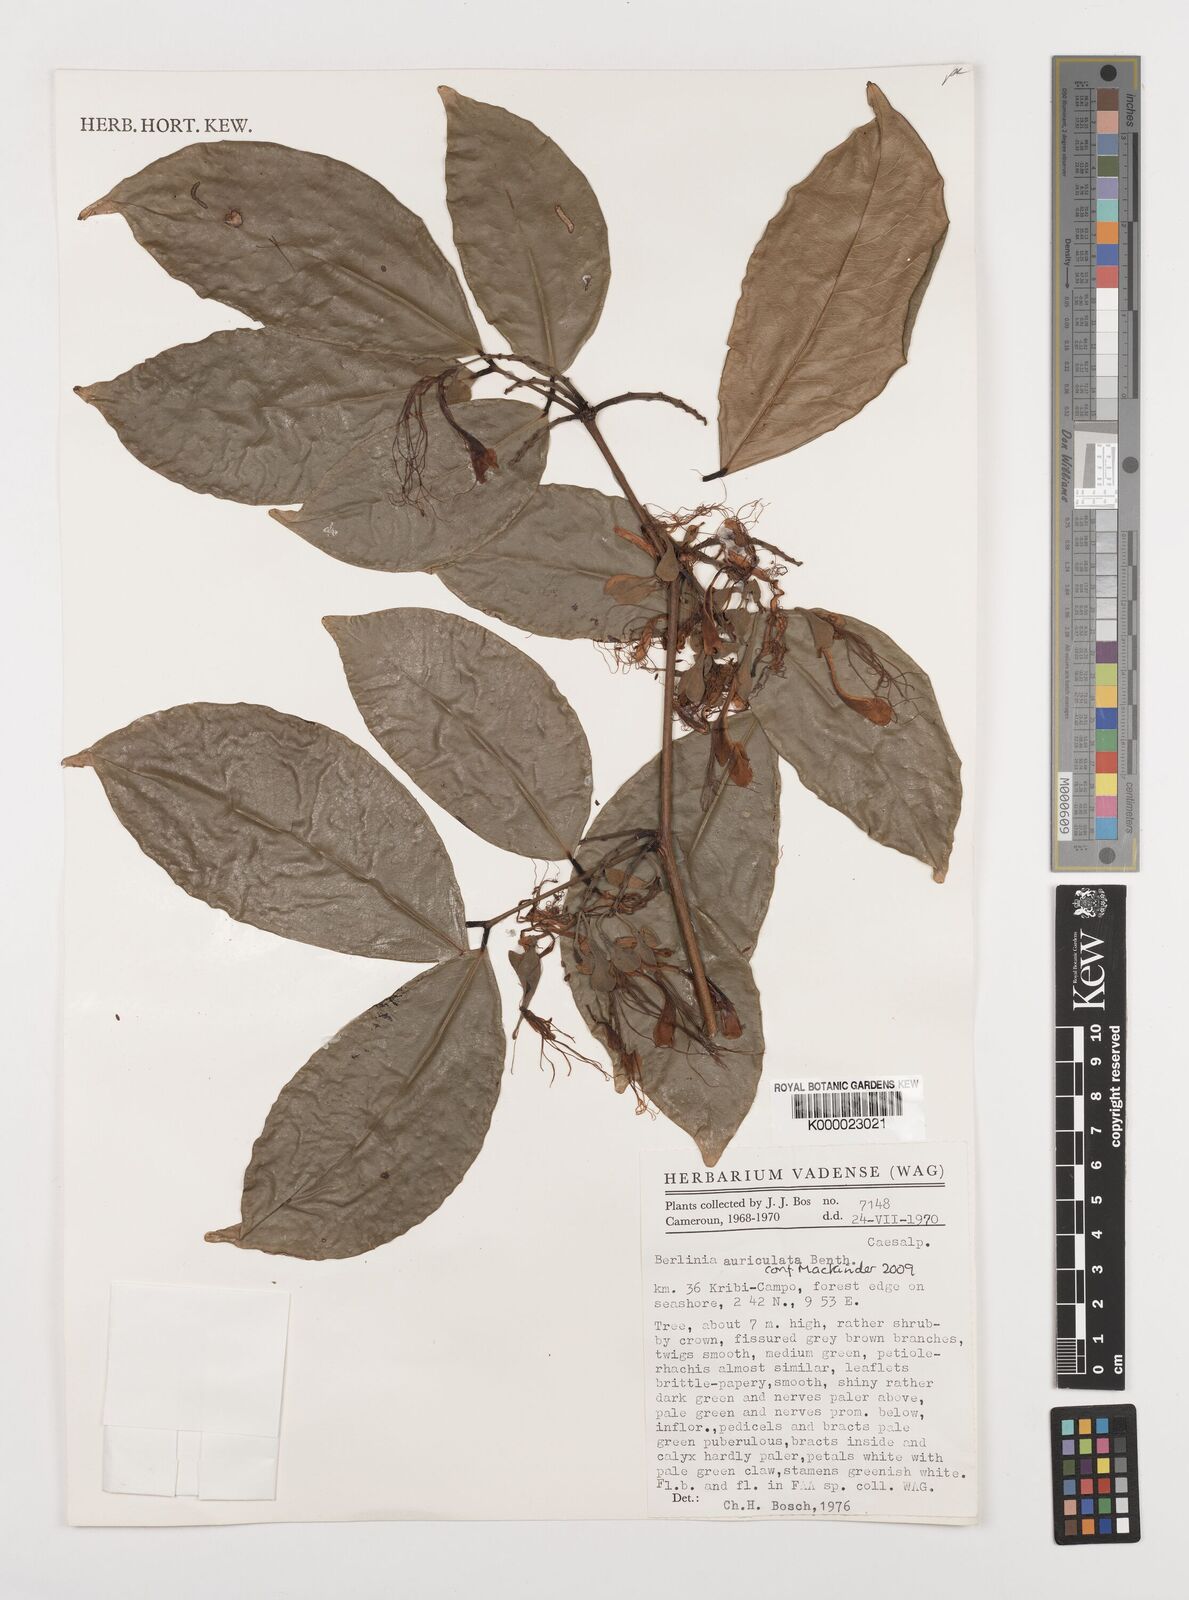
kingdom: Plantae
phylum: Tracheophyta
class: Magnoliopsida
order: Fabales
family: Fabaceae
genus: Berlinia
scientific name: Berlinia auriculata
